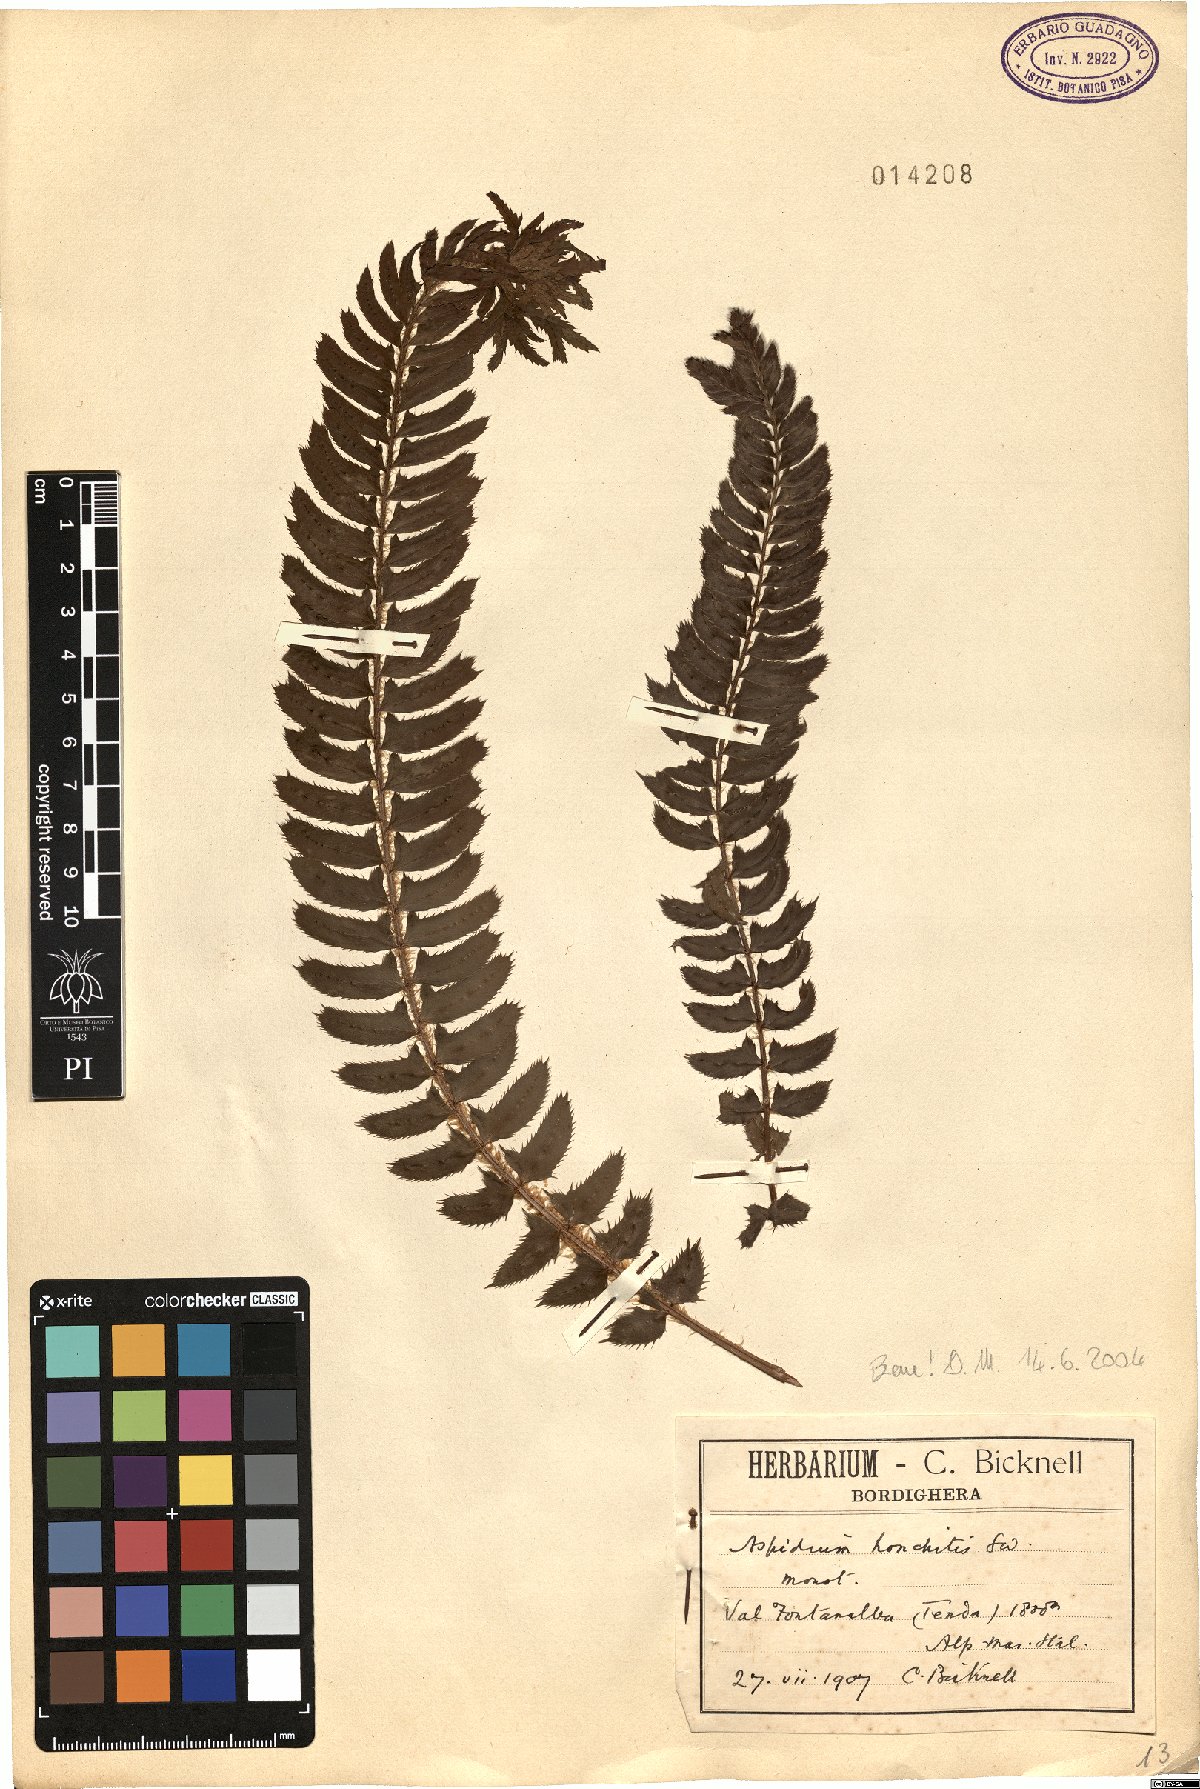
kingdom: Plantae
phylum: Tracheophyta
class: Polypodiopsida
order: Polypodiales
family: Dryopteridaceae
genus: Polystichum
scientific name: Polystichum lonchitis
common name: Holly fern
